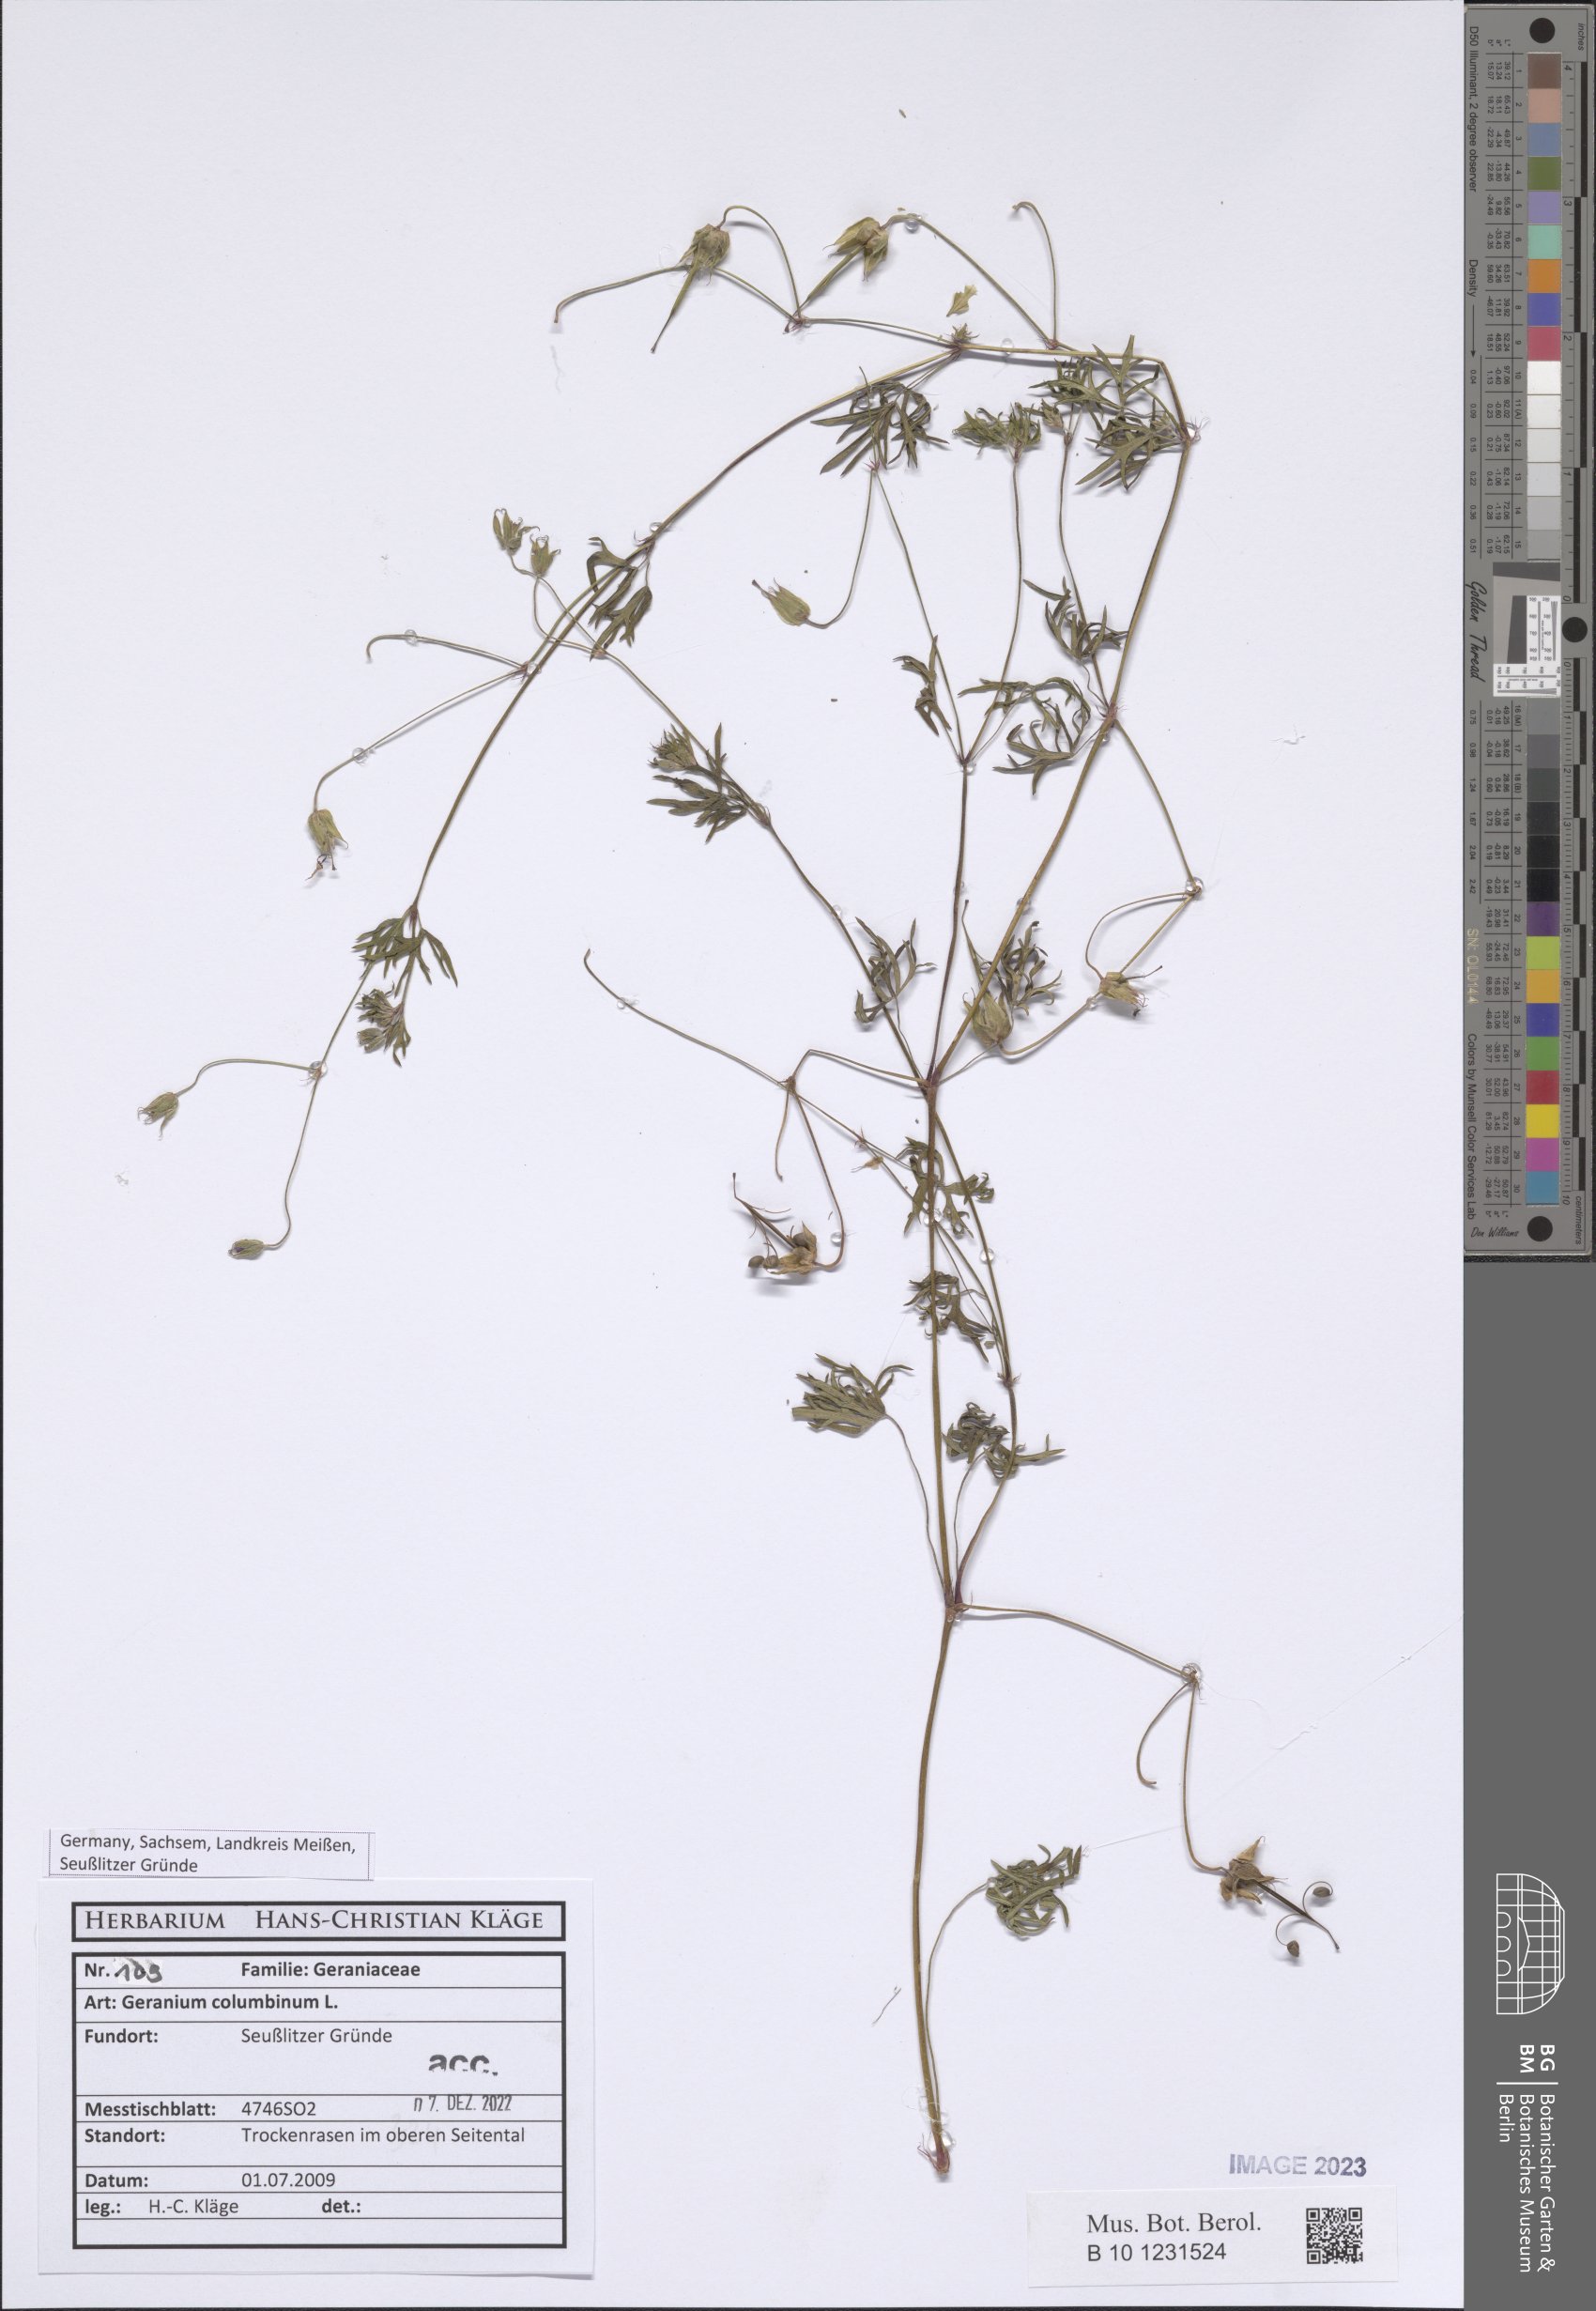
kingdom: Plantae
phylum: Tracheophyta
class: Magnoliopsida
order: Geraniales
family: Geraniaceae
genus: Geranium
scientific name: Geranium columbinum
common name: Long-stalked crane's-bill
